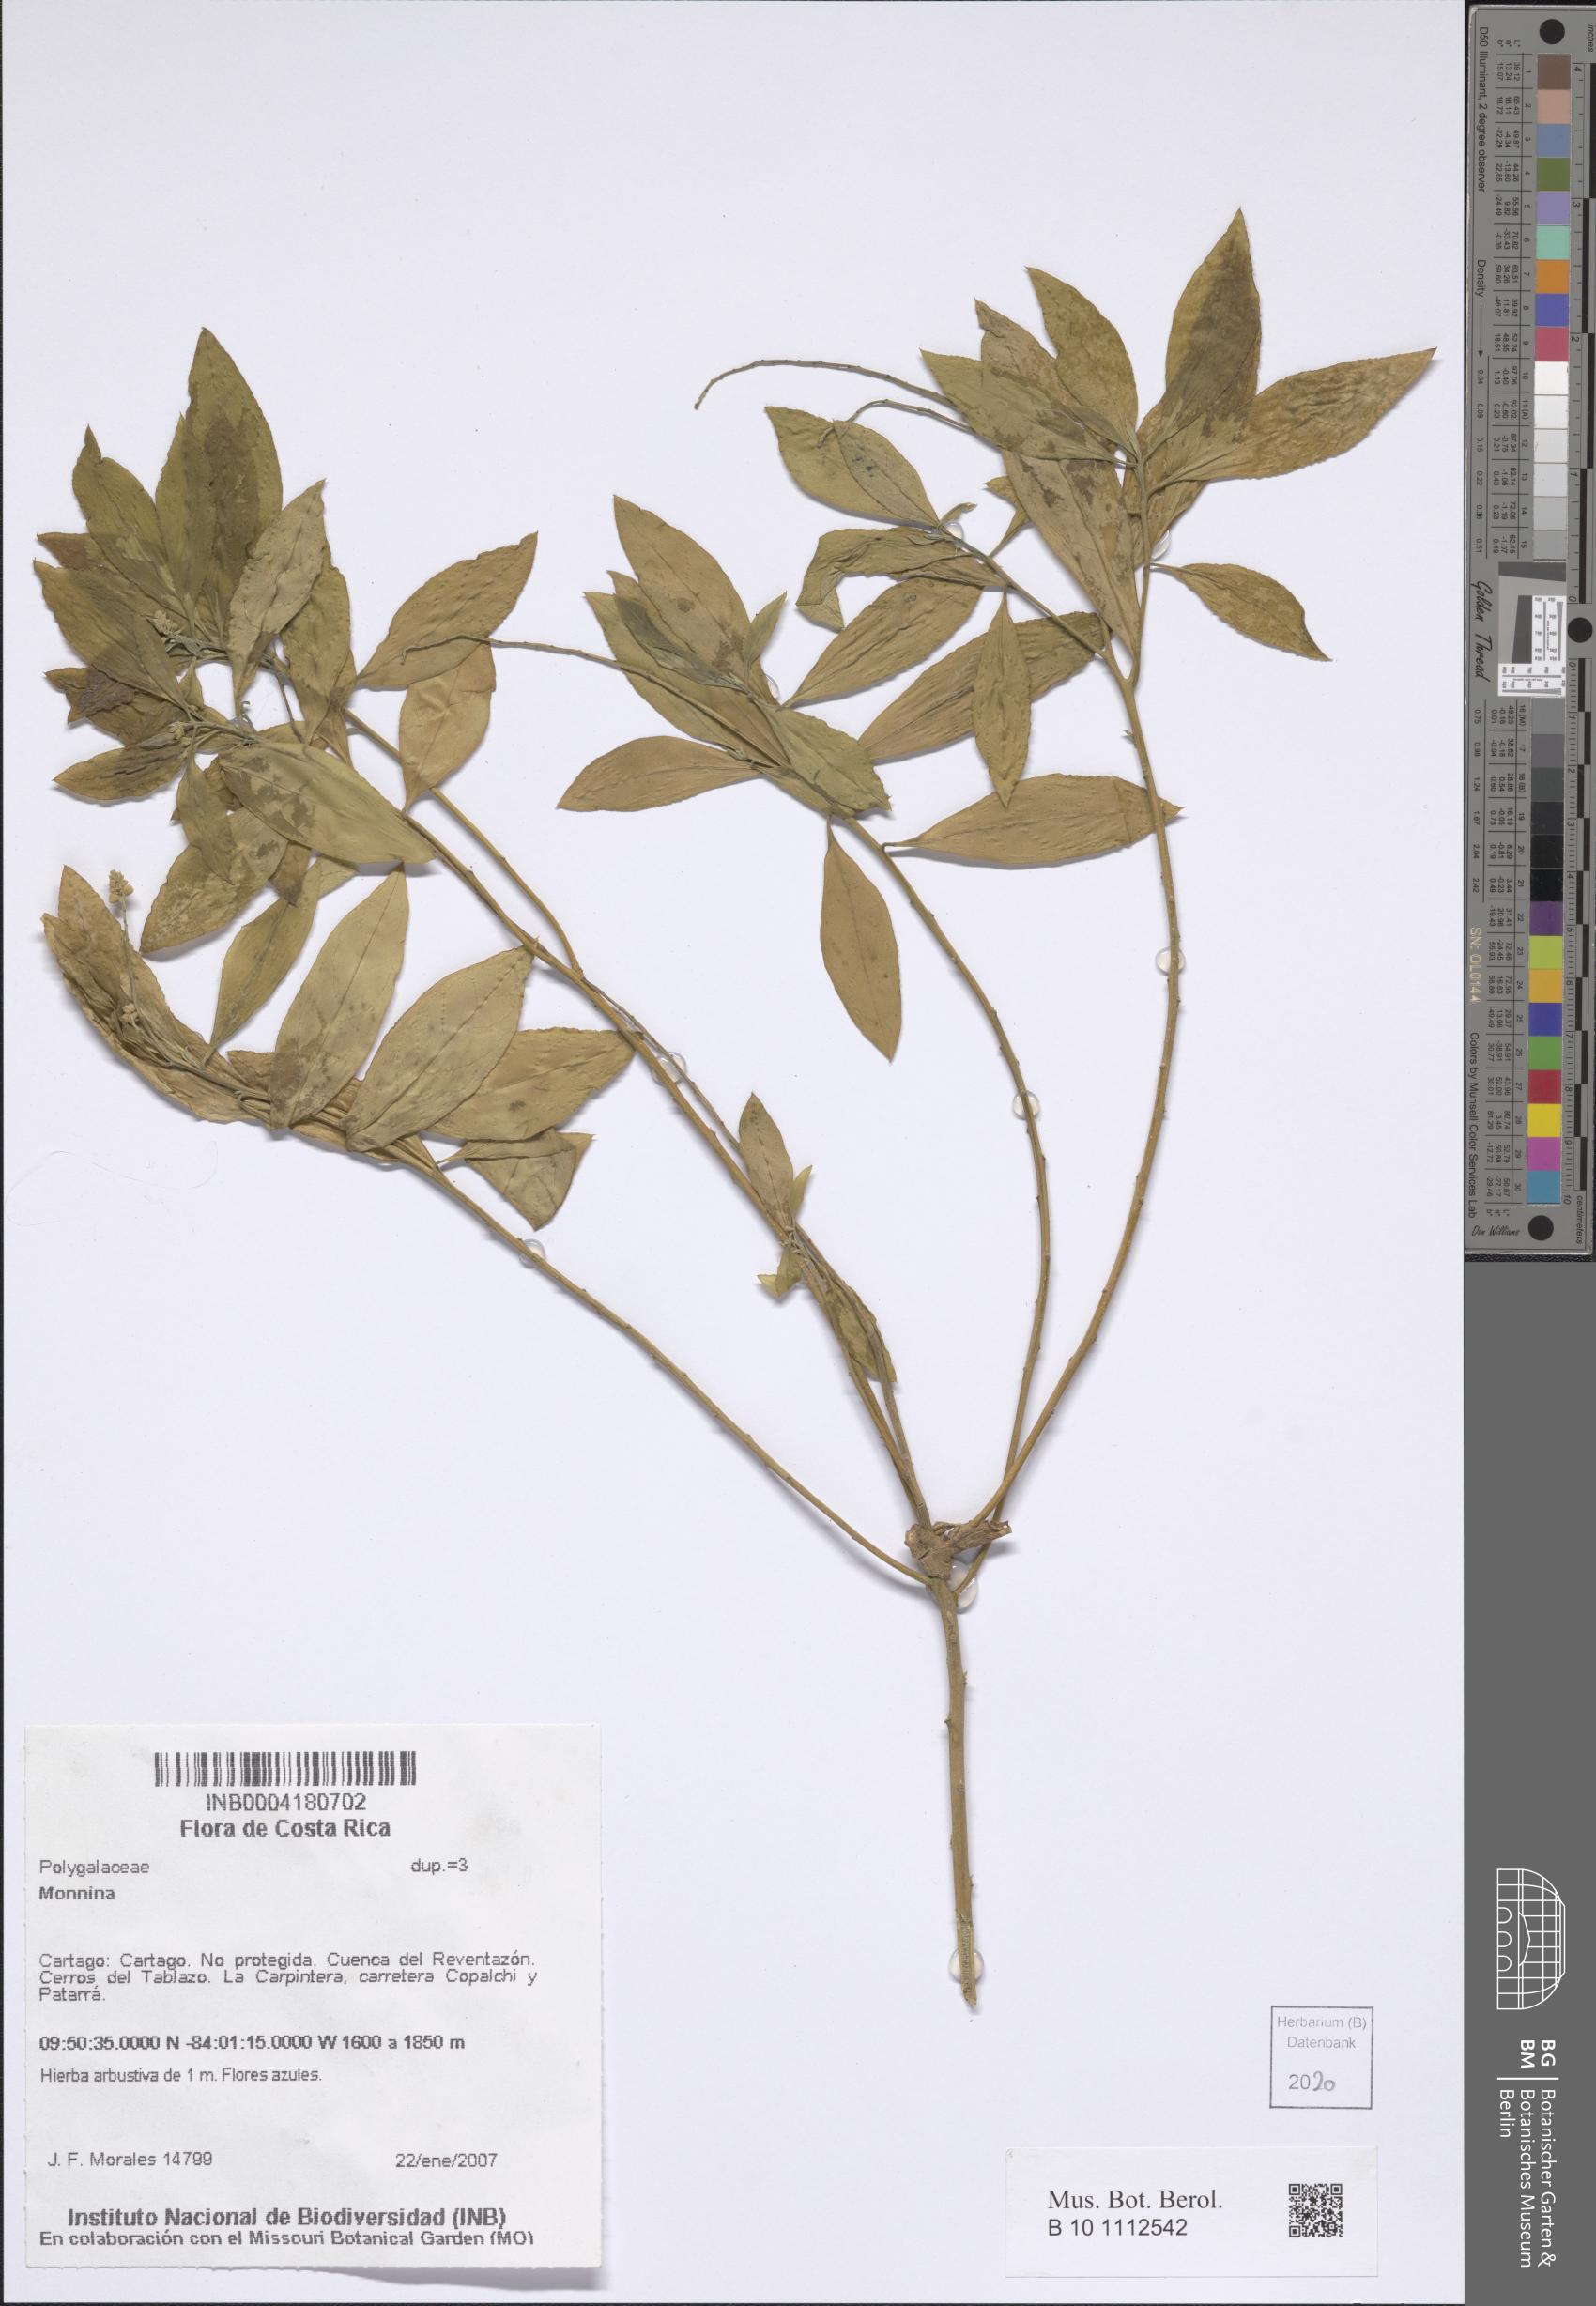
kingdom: Plantae
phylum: Tracheophyta
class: Magnoliopsida
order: Fabales
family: Polygalaceae
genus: Monnina
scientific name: Monnina
